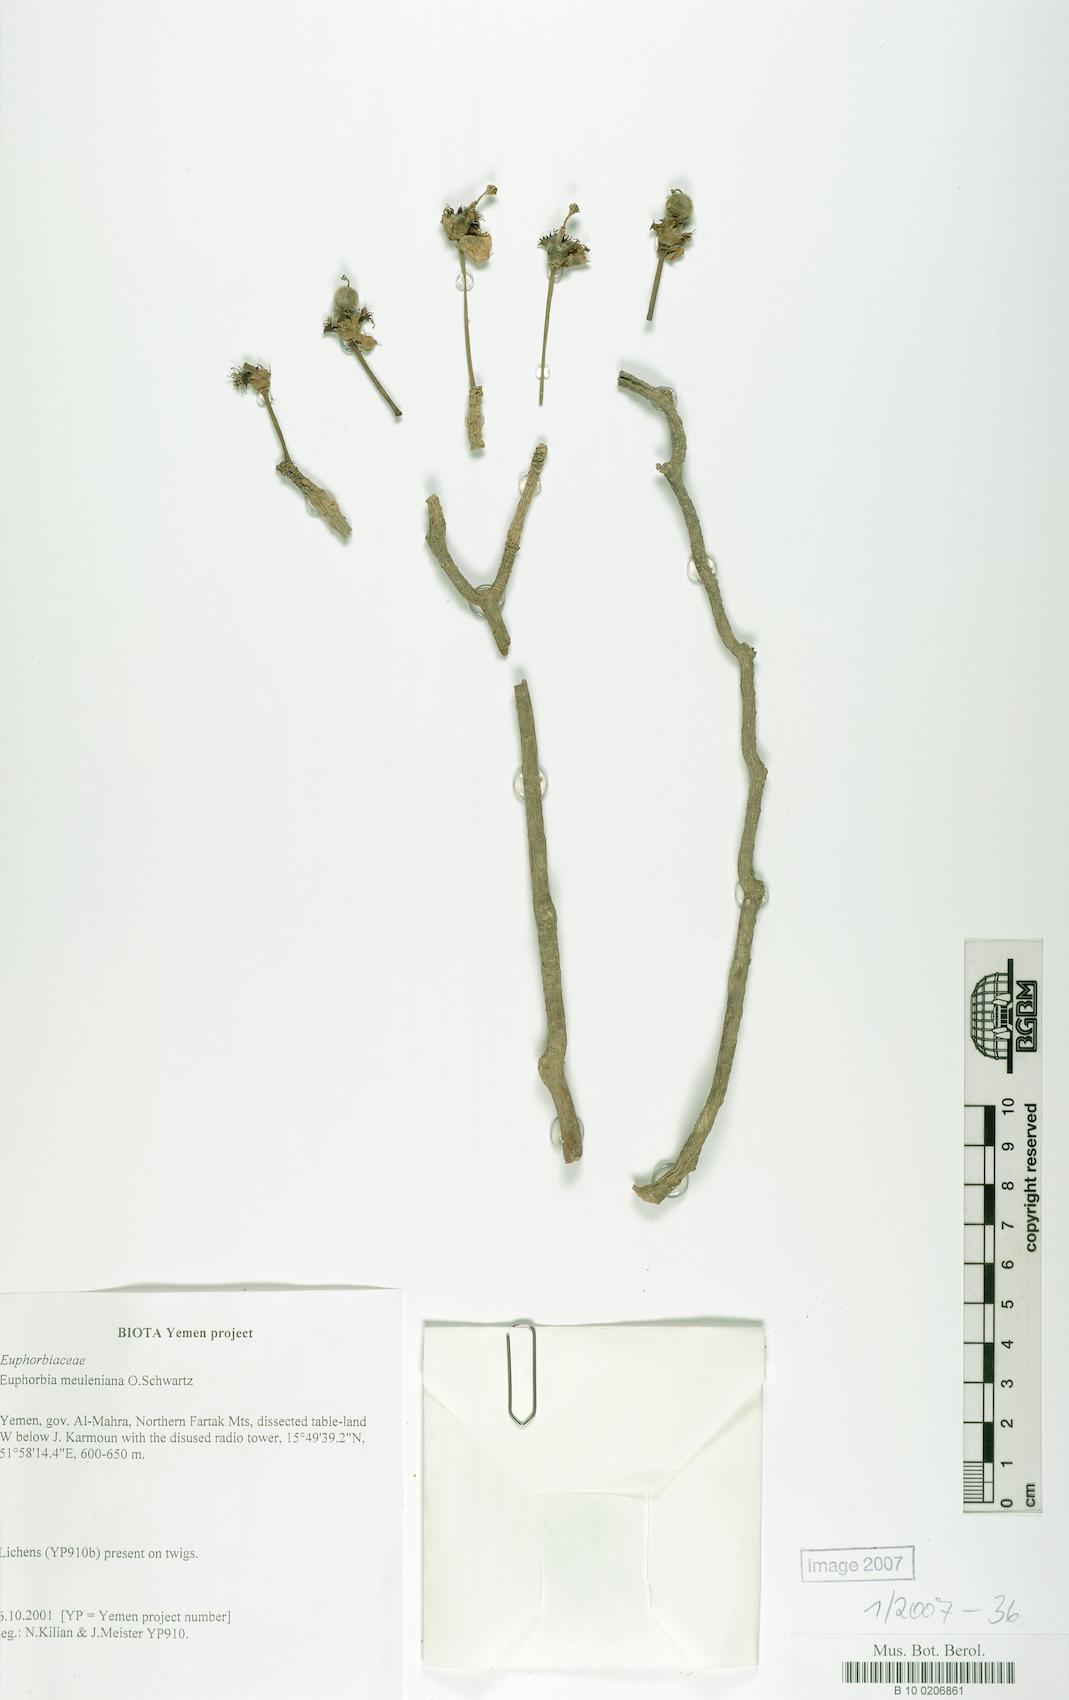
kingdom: Plantae
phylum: Tracheophyta
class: Magnoliopsida
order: Malpighiales
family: Euphorbiaceae
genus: Euphorbia
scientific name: Euphorbia meuleniana
